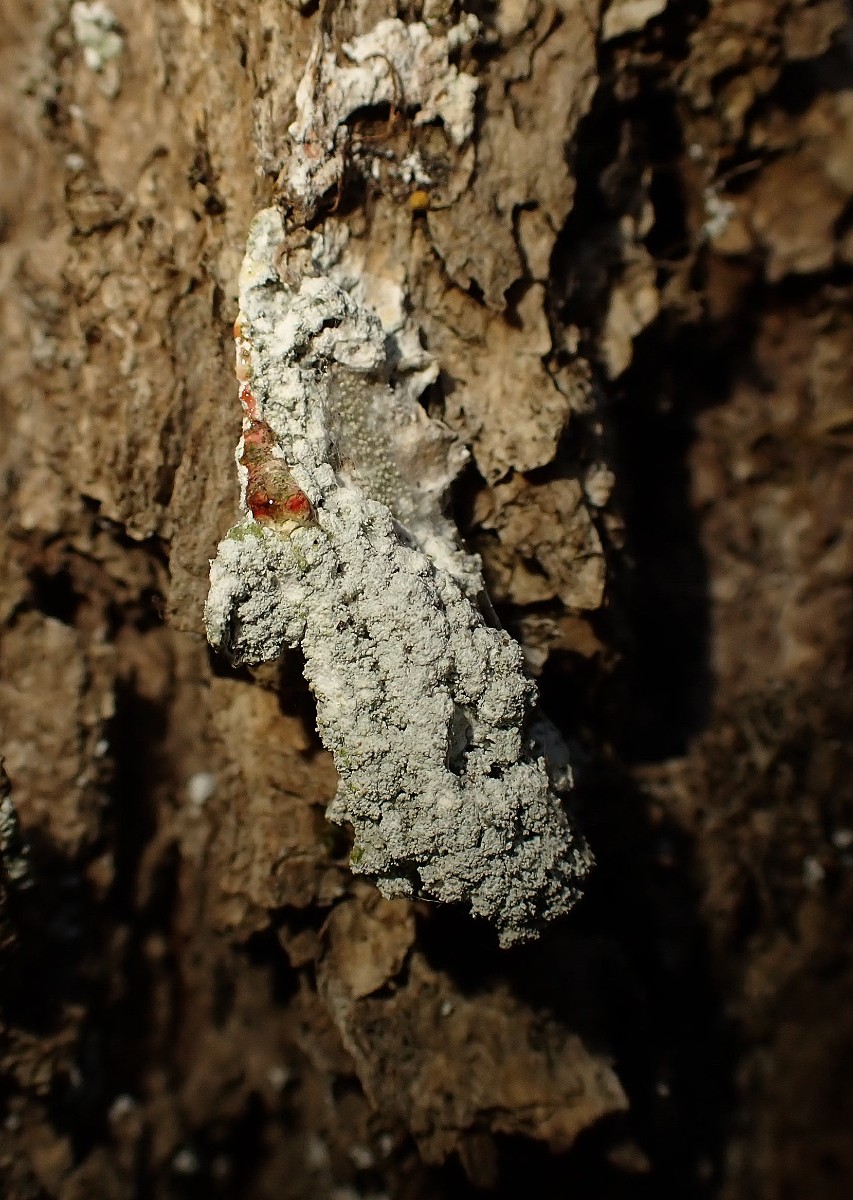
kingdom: Fungi
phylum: Ascomycota
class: Lecanoromycetes
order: Pertusariales
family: Pertusariaceae
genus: Lepra
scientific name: Lepra amara
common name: bitter prikvortelav
